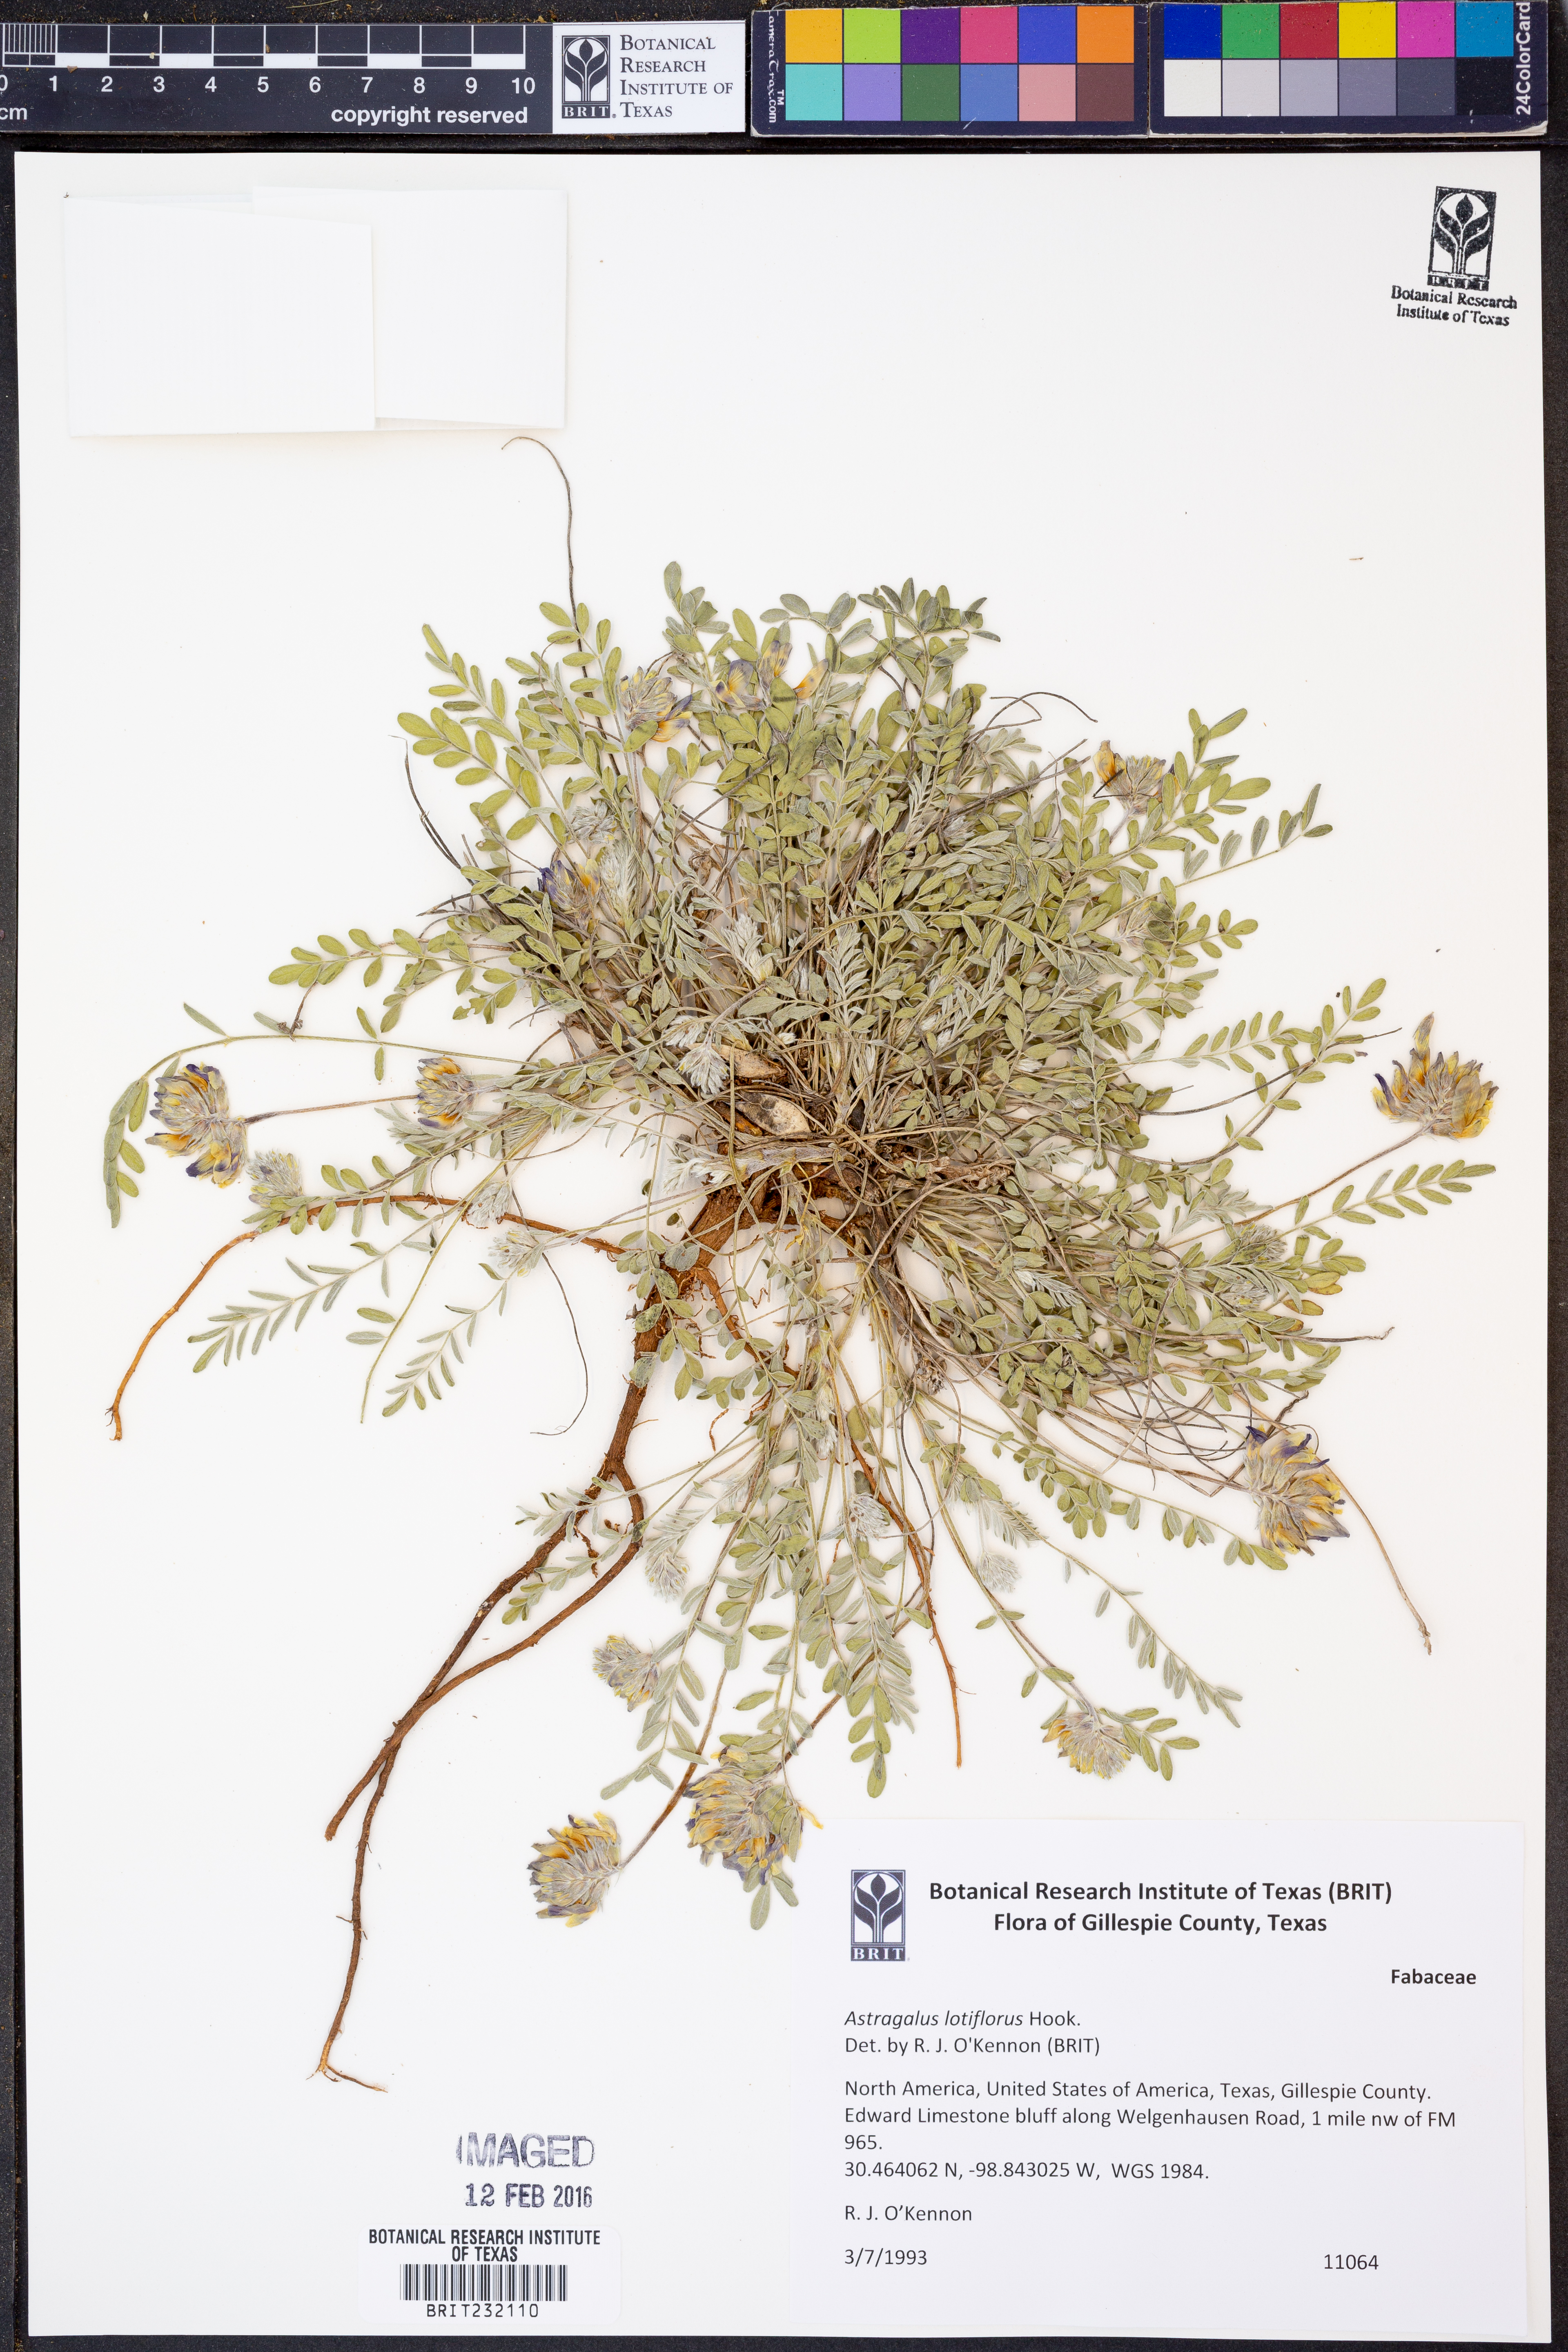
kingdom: Plantae
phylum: Tracheophyta
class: Magnoliopsida
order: Fabales
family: Fabaceae
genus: Astragalus
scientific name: Astragalus lotiflorus
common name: Lotus milk-vetch
